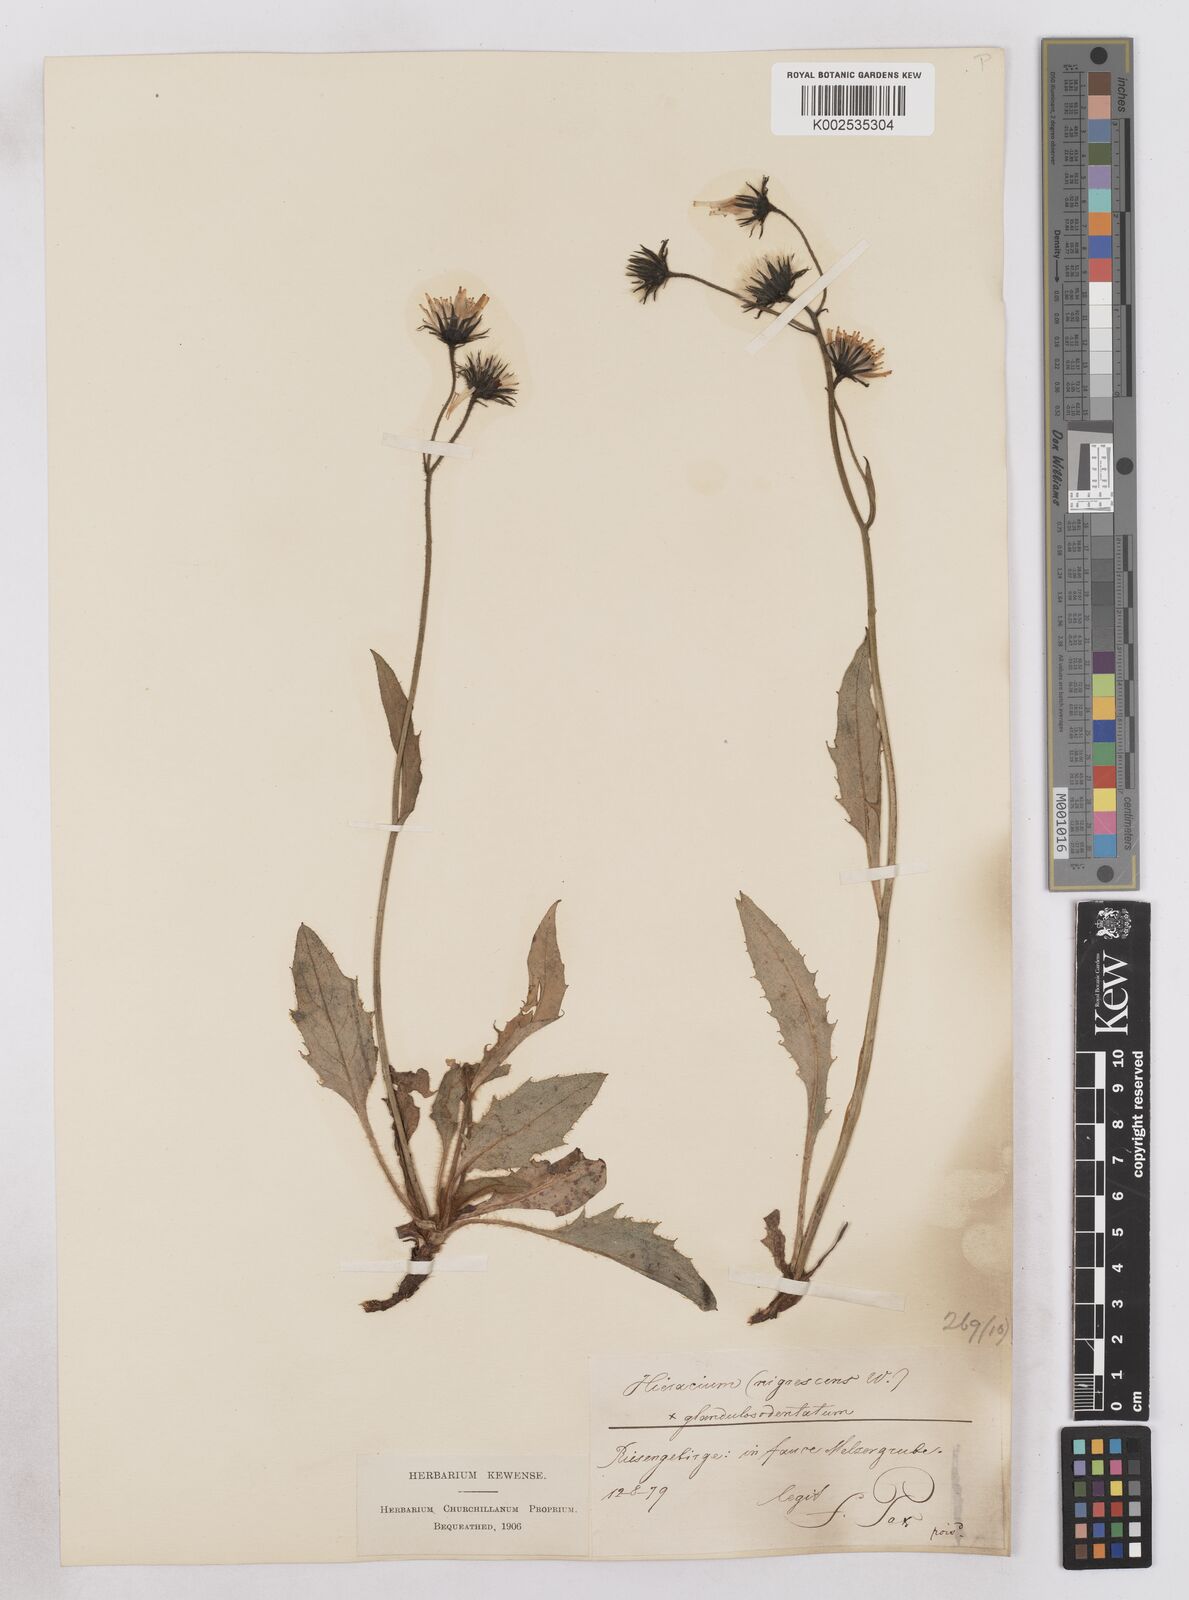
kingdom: Plantae
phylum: Tracheophyta
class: Magnoliopsida
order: Asterales
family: Asteraceae
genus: Hieracium
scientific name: Hieracium bocconei
